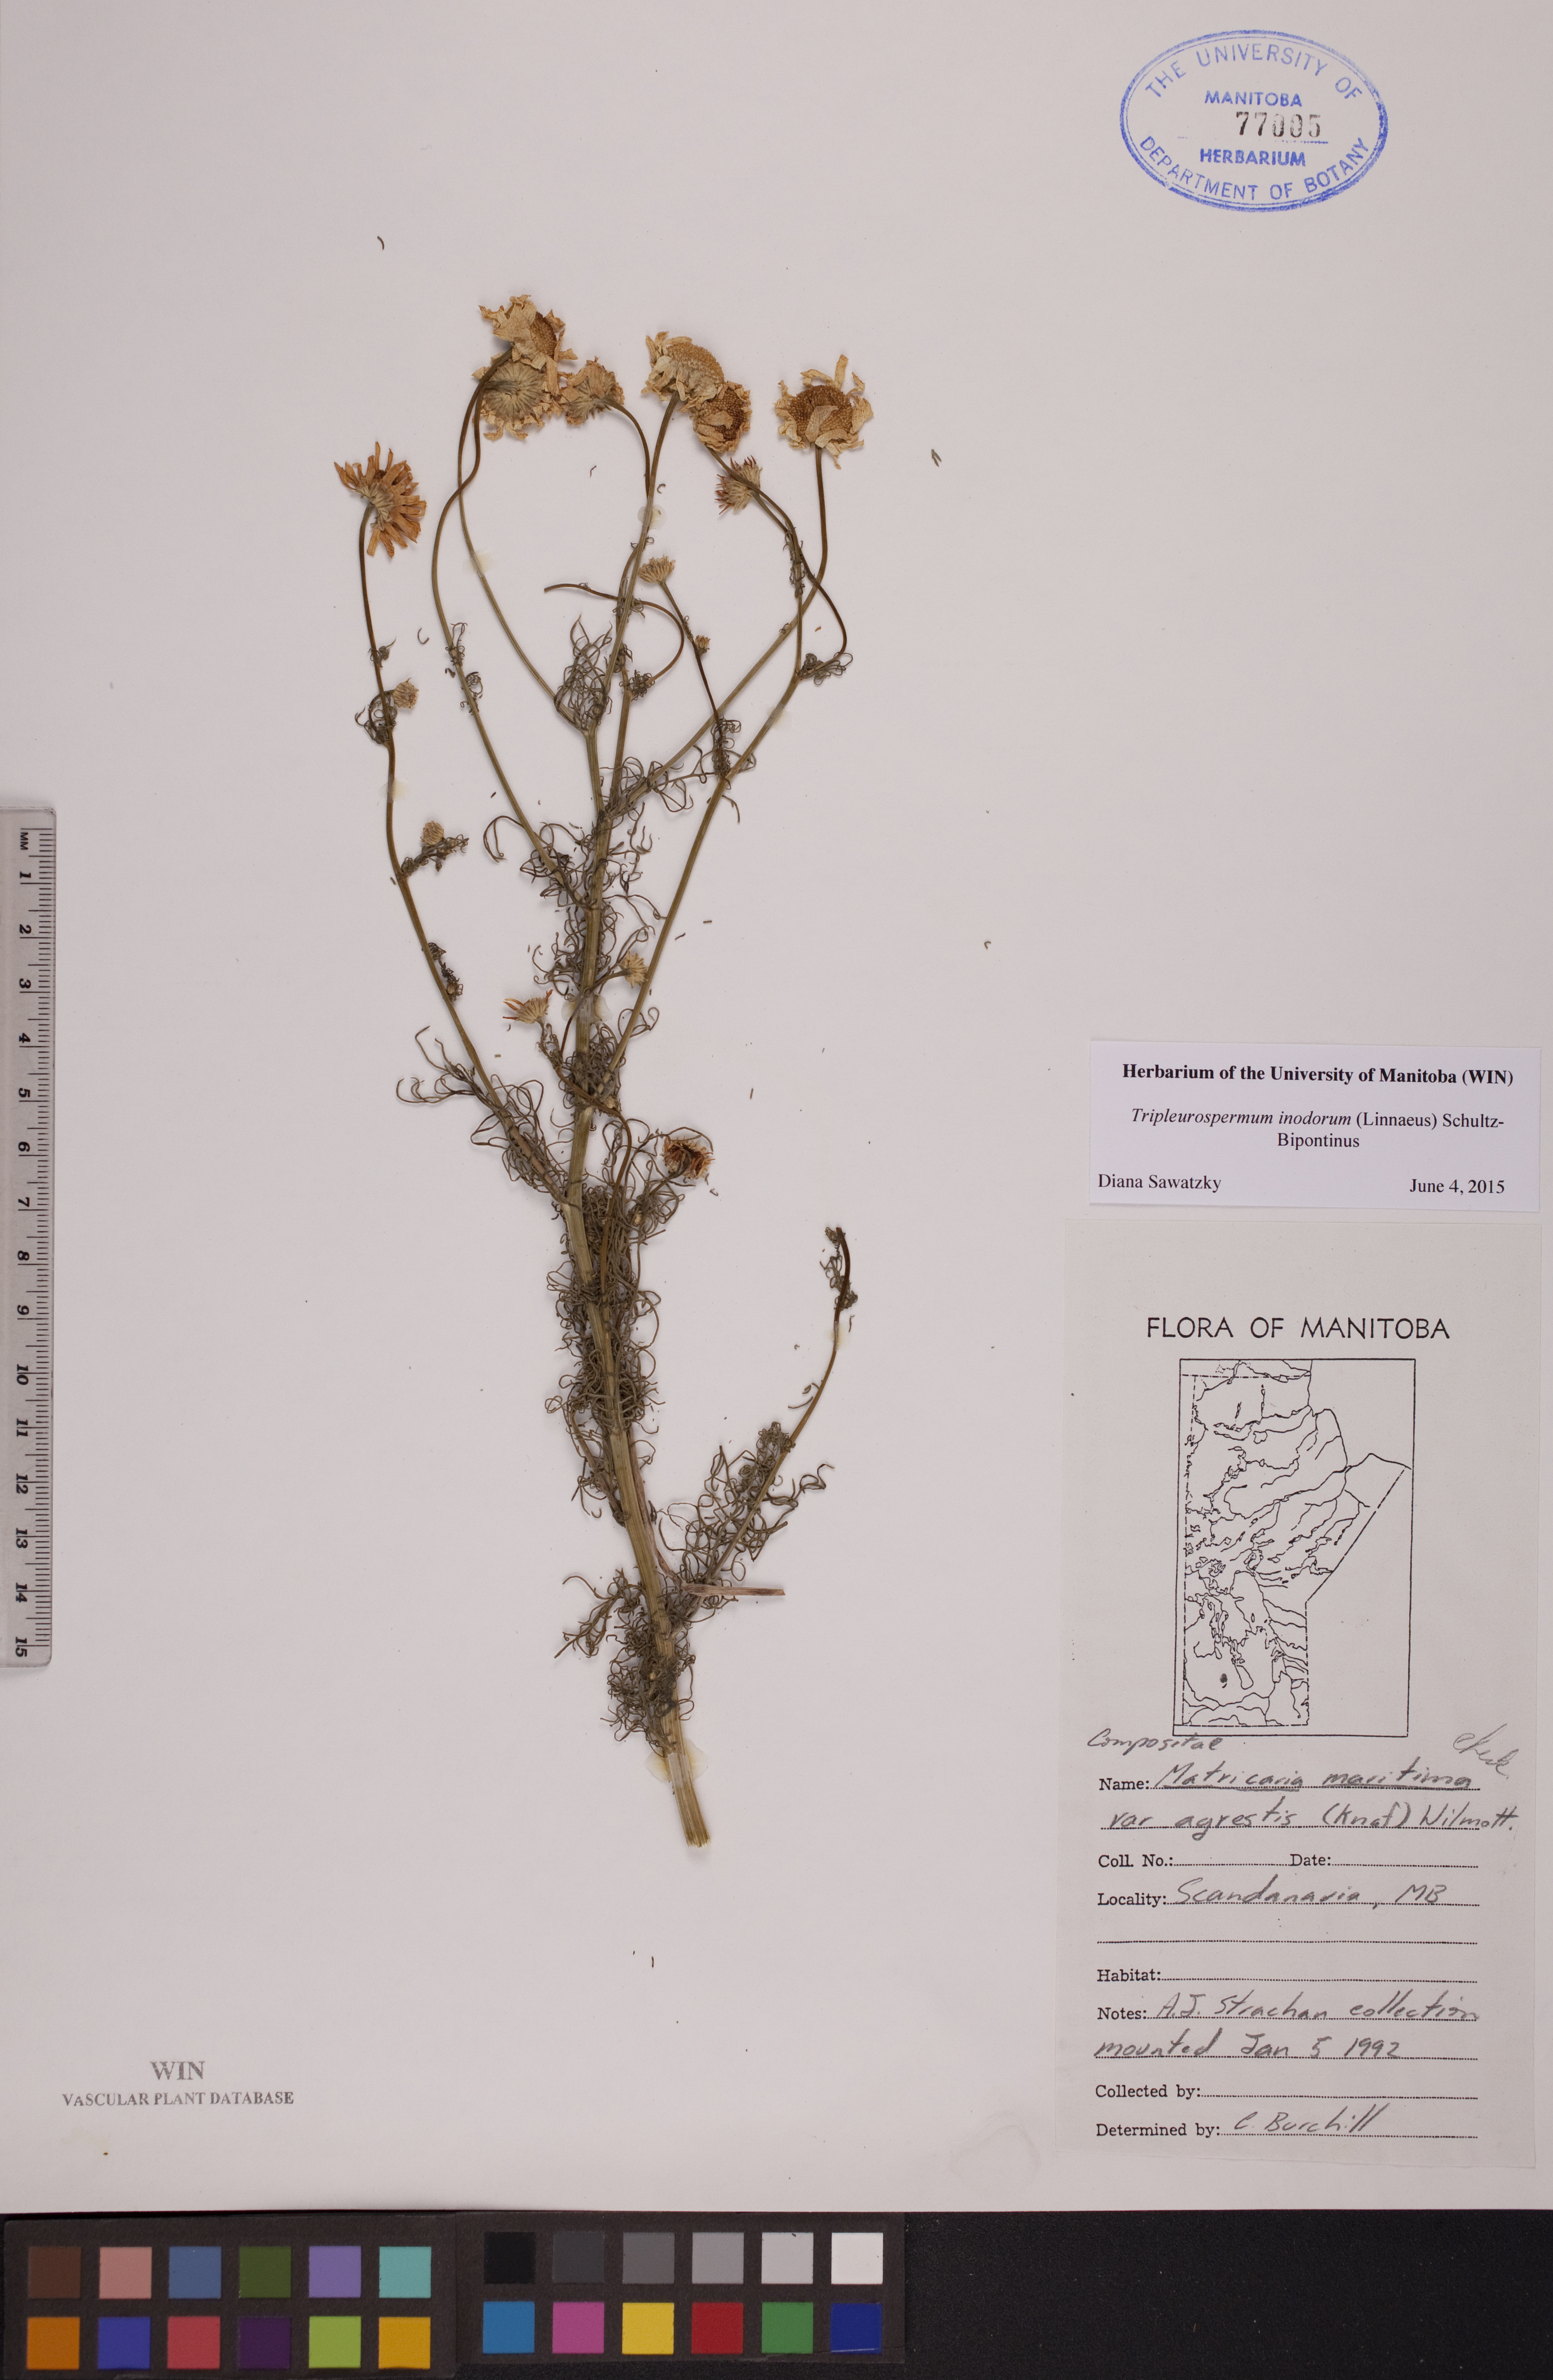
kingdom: Plantae
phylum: Tracheophyta
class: Magnoliopsida
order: Asterales
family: Asteraceae
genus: Tripleurospermum
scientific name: Tripleurospermum inodorum
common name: Scentless mayweed
